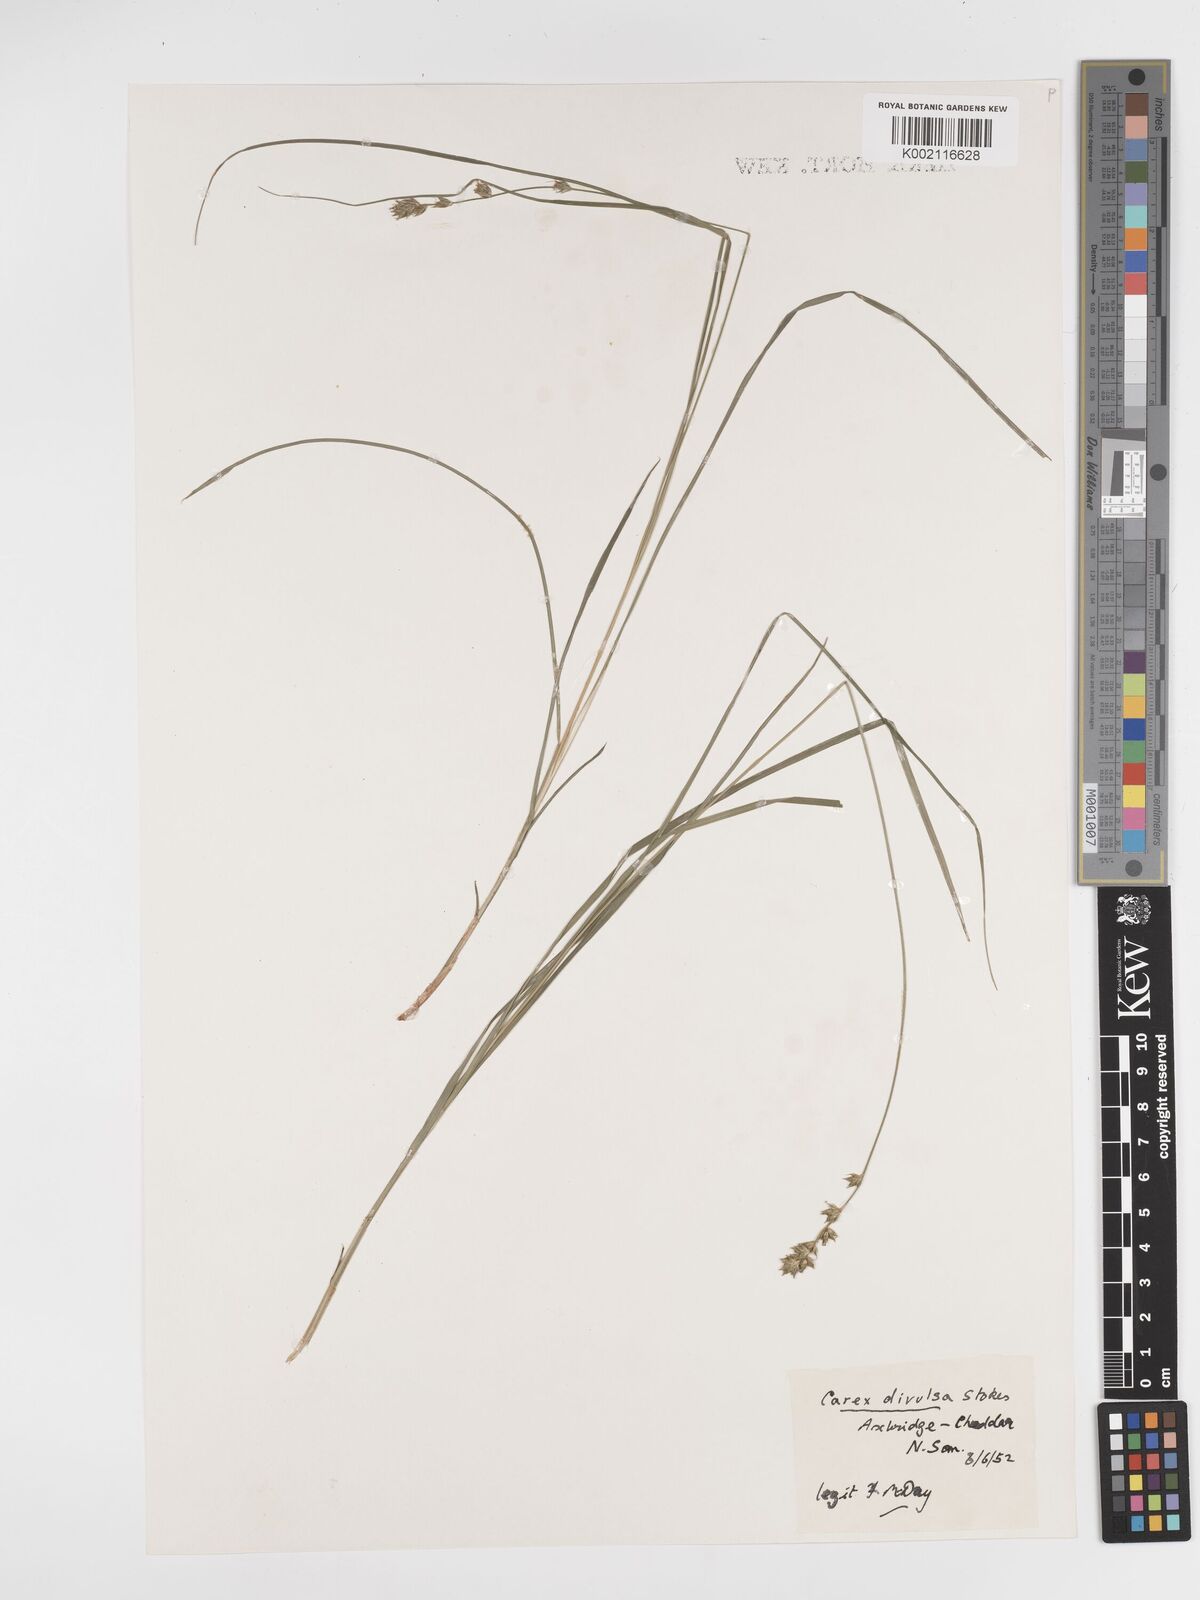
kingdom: Plantae
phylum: Tracheophyta
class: Liliopsida
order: Poales
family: Cyperaceae
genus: Carex
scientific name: Carex divulsa
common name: Grassland sedge
